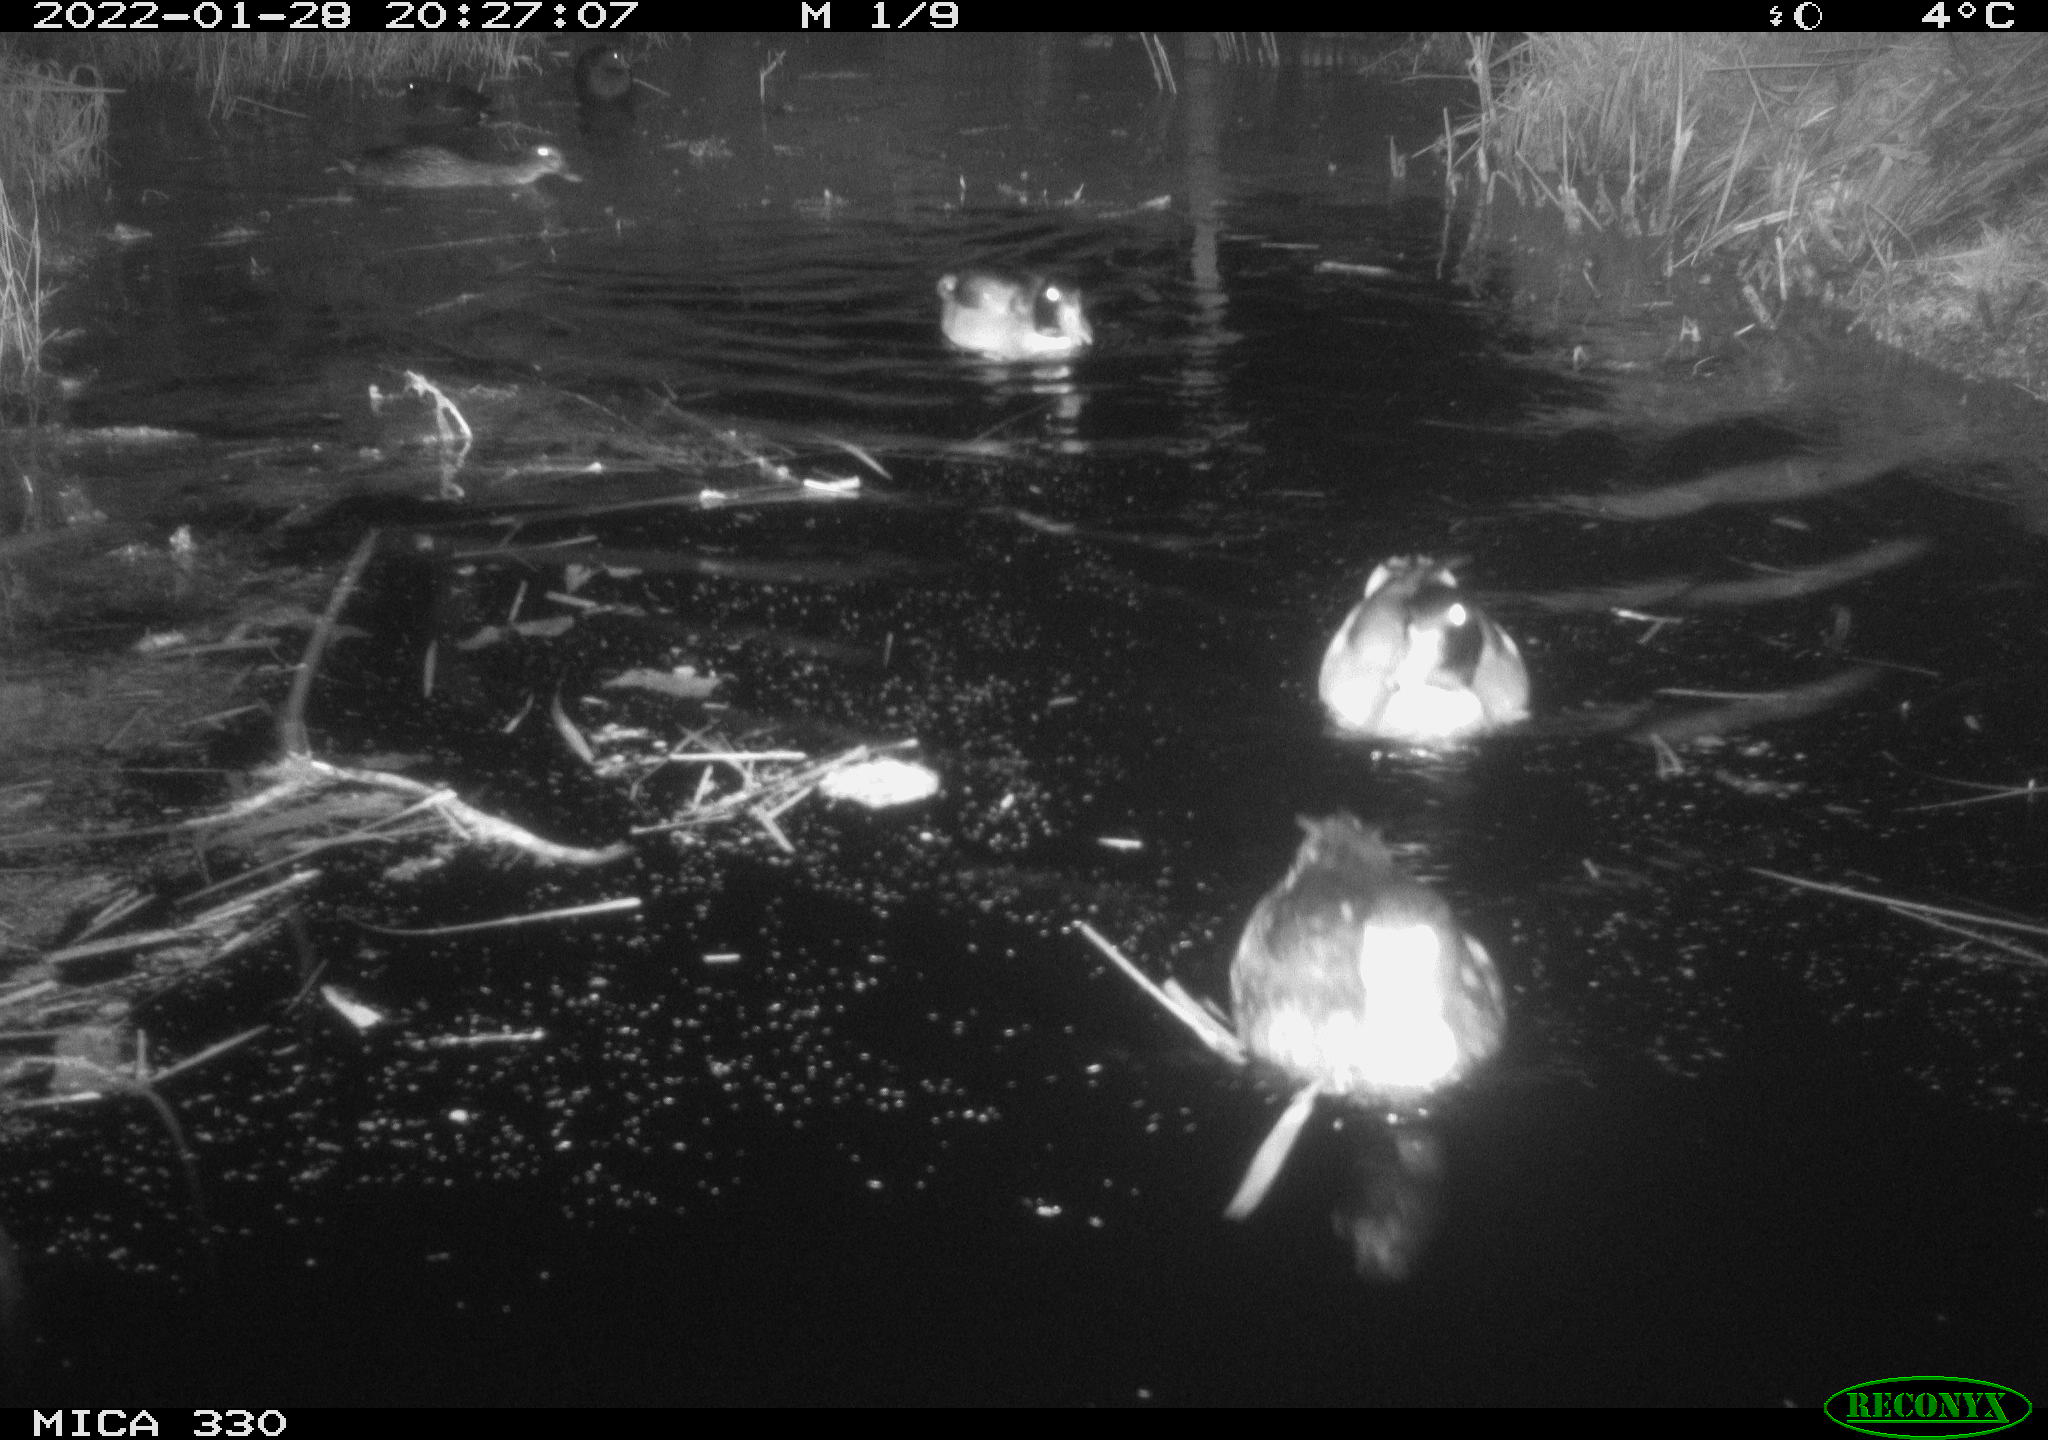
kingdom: Animalia
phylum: Chordata
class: Aves
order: Anseriformes
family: Anatidae
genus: Anas
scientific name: Anas platyrhynchos
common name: Mallard
